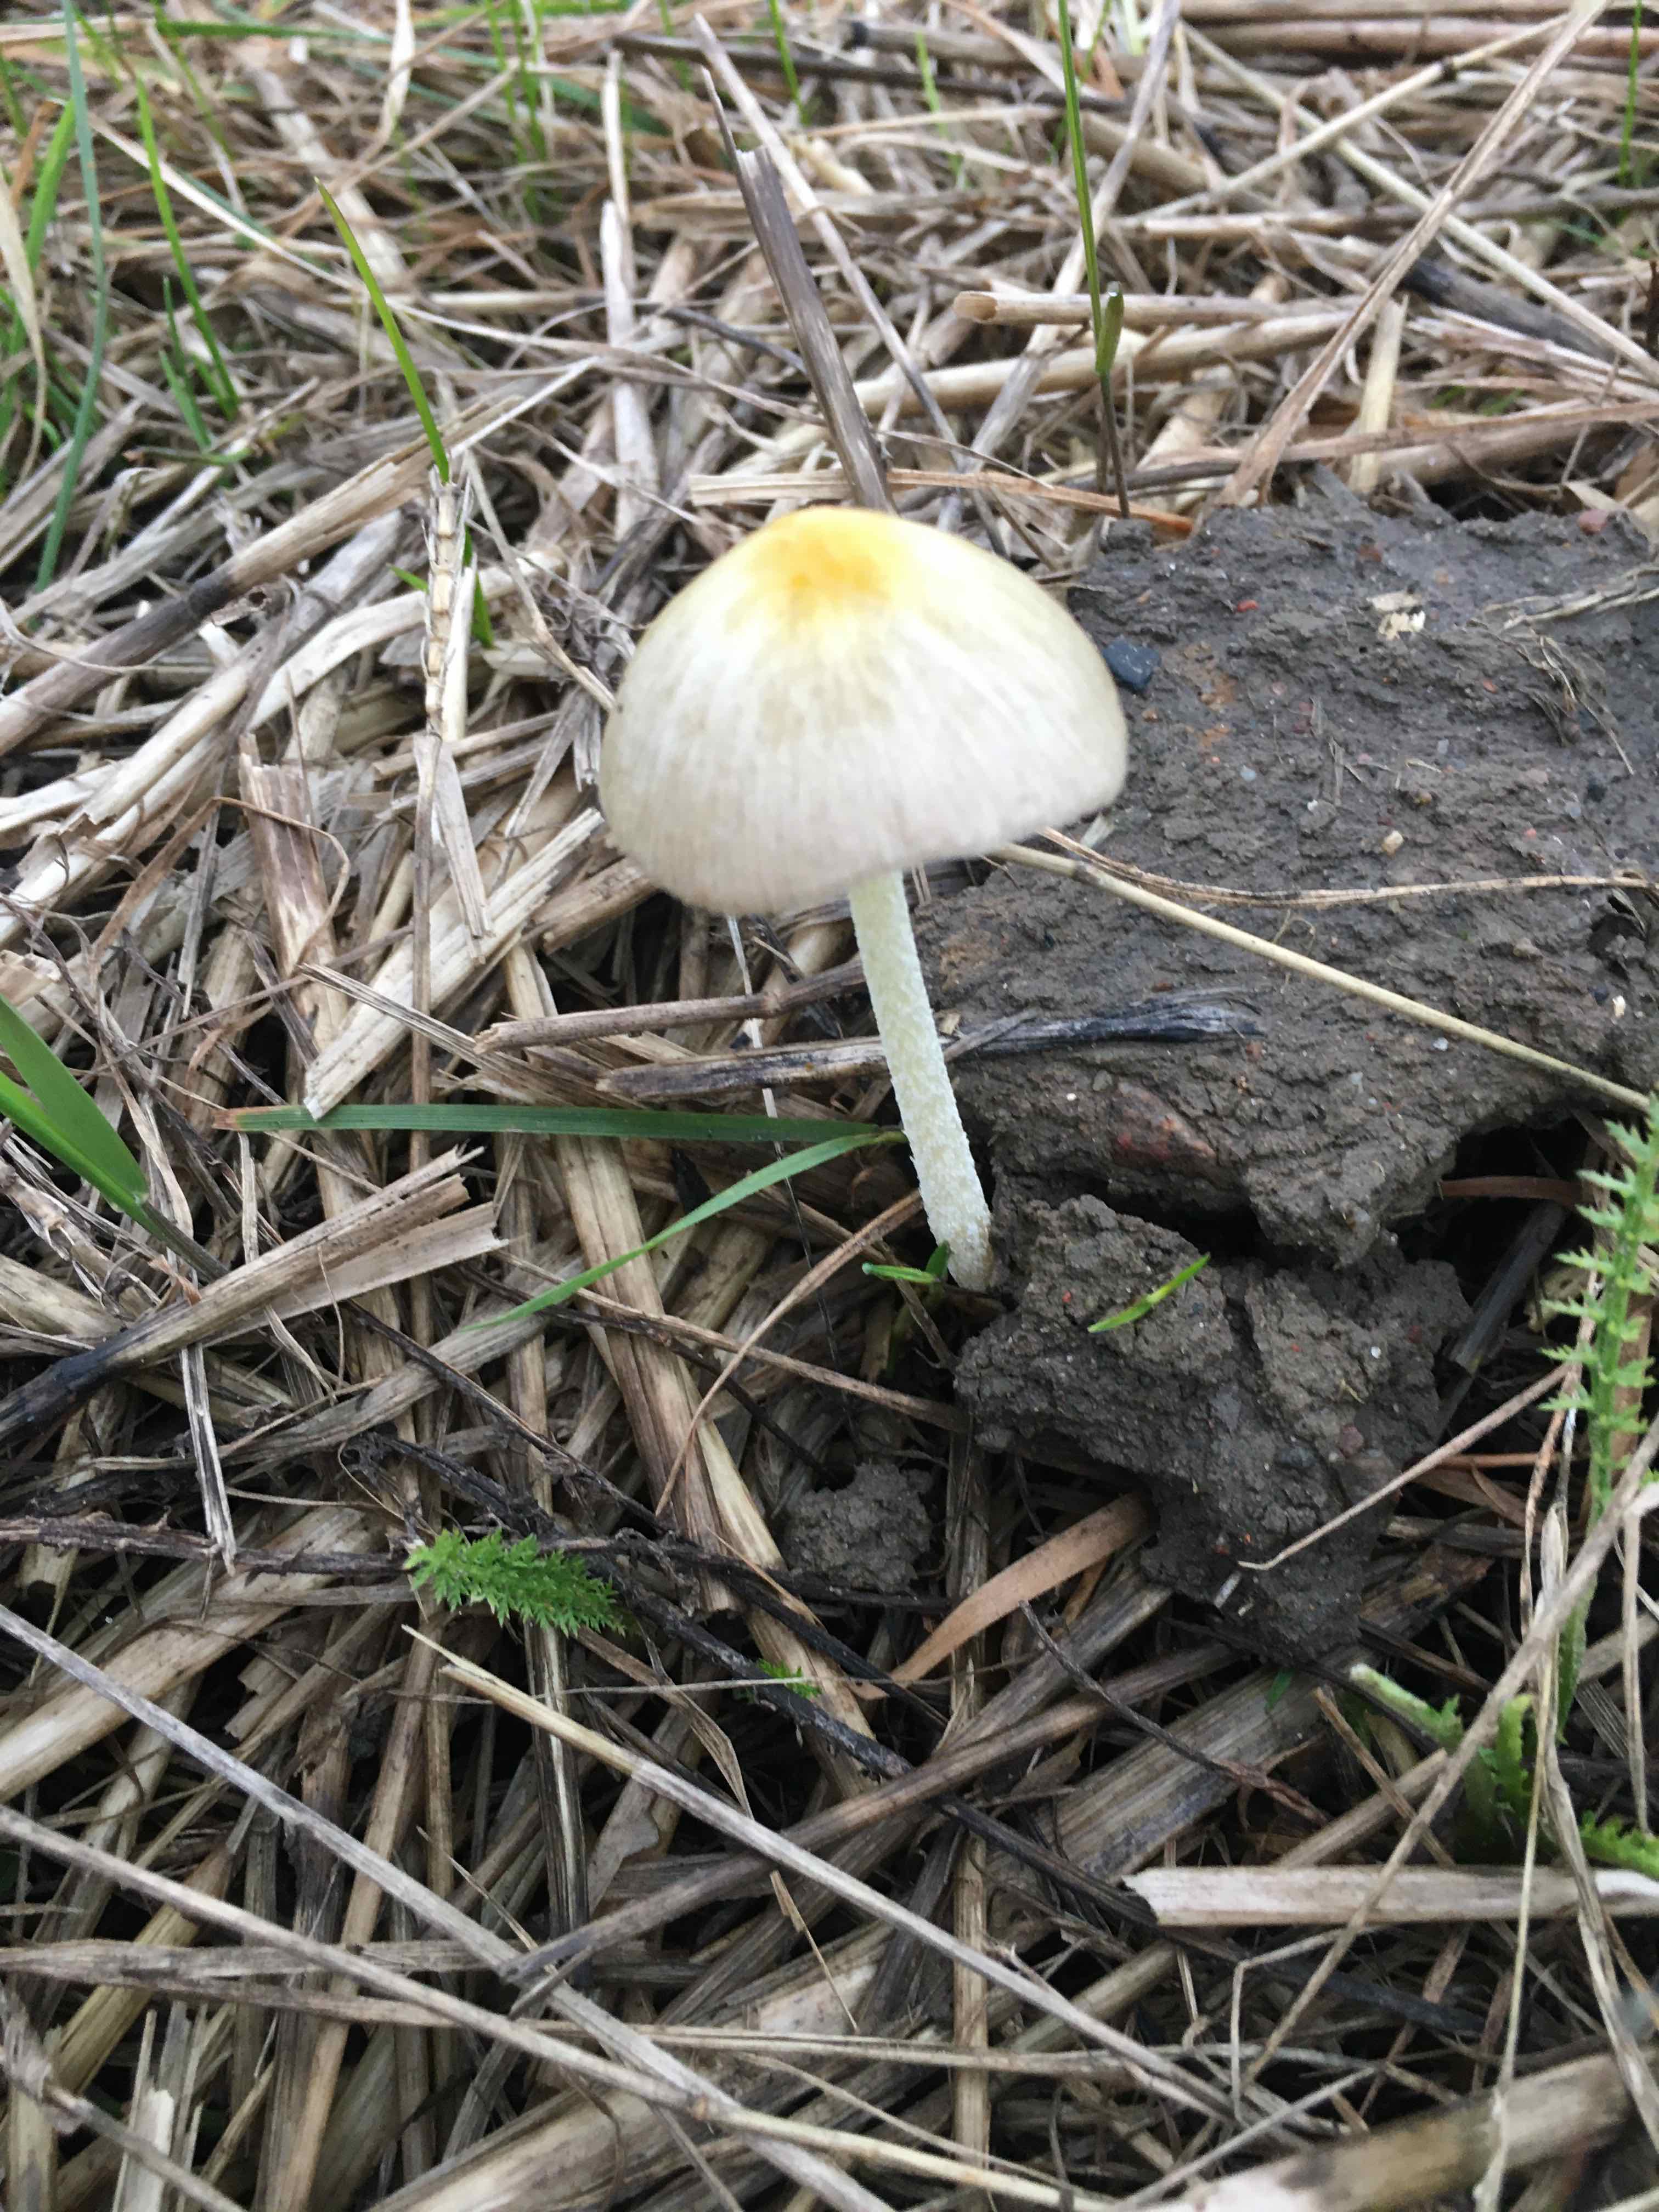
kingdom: Fungi
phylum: Basidiomycota
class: Agaricomycetes
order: Agaricales
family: Bolbitiaceae
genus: Bolbitius
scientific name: Bolbitius titubans
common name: almindelig gulhat
